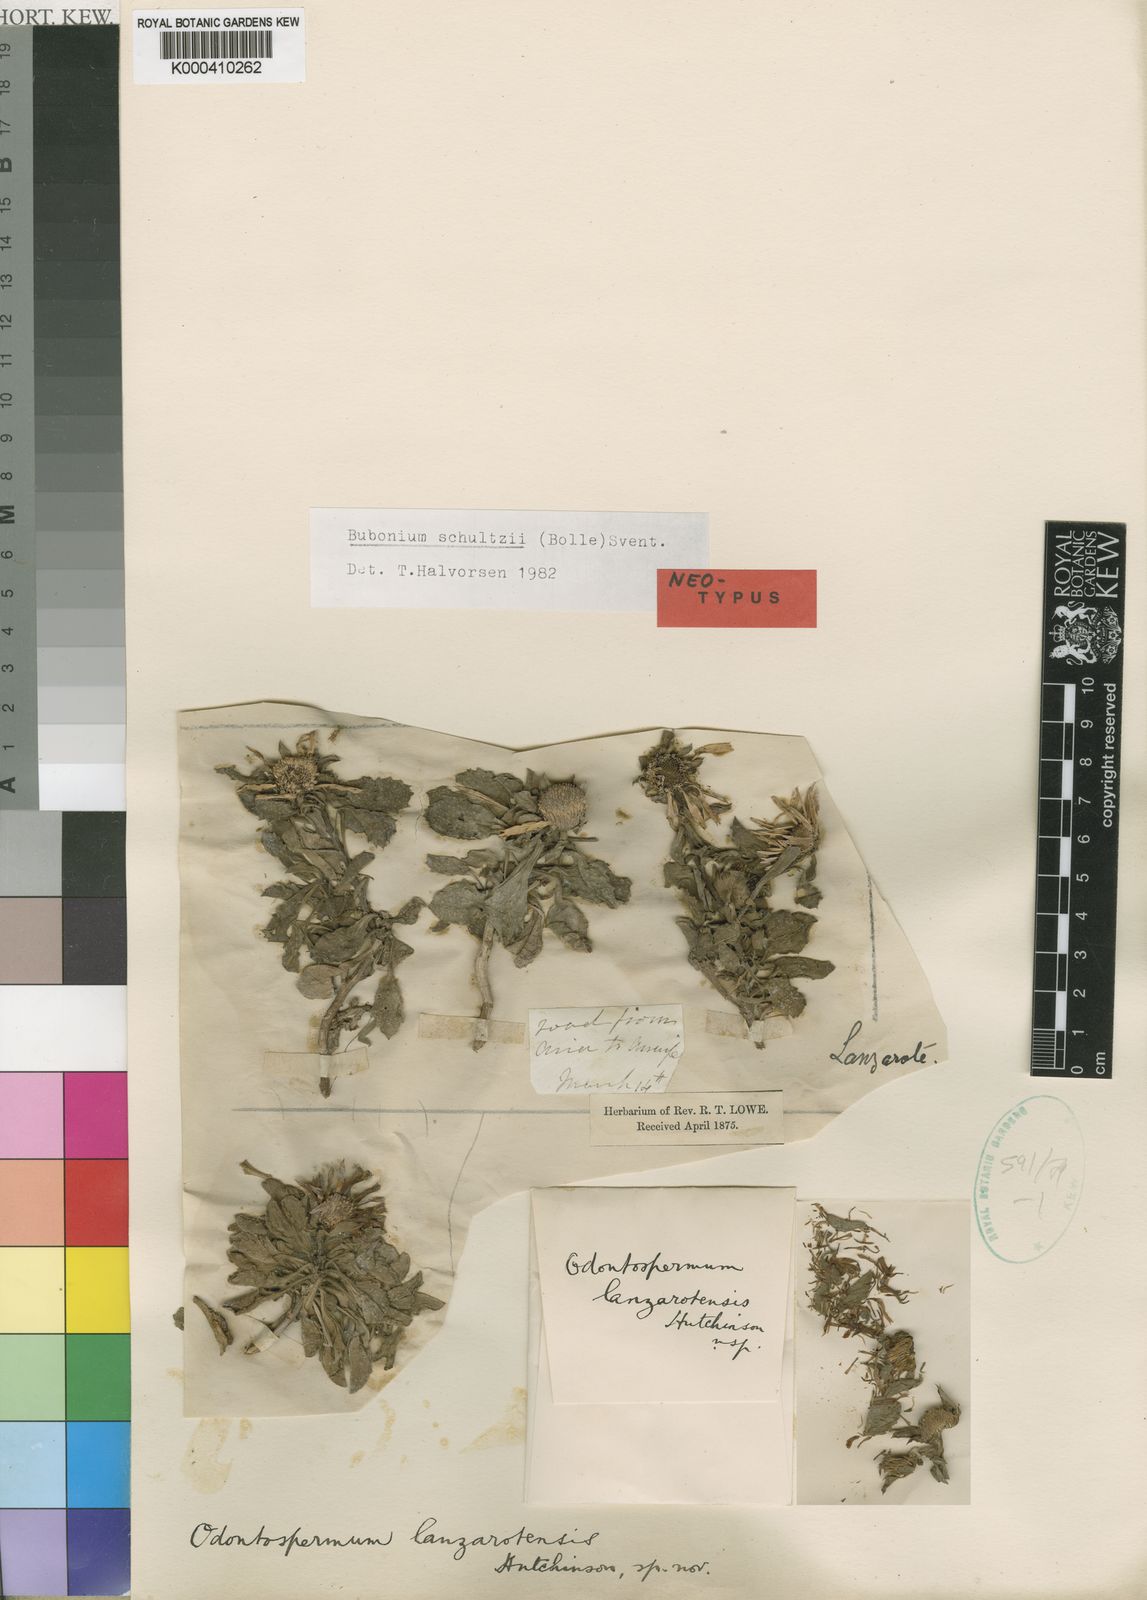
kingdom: Plantae
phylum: Tracheophyta
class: Magnoliopsida
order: Asterales
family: Asteraceae
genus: Asteriscus
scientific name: Asteriscus schultzii
